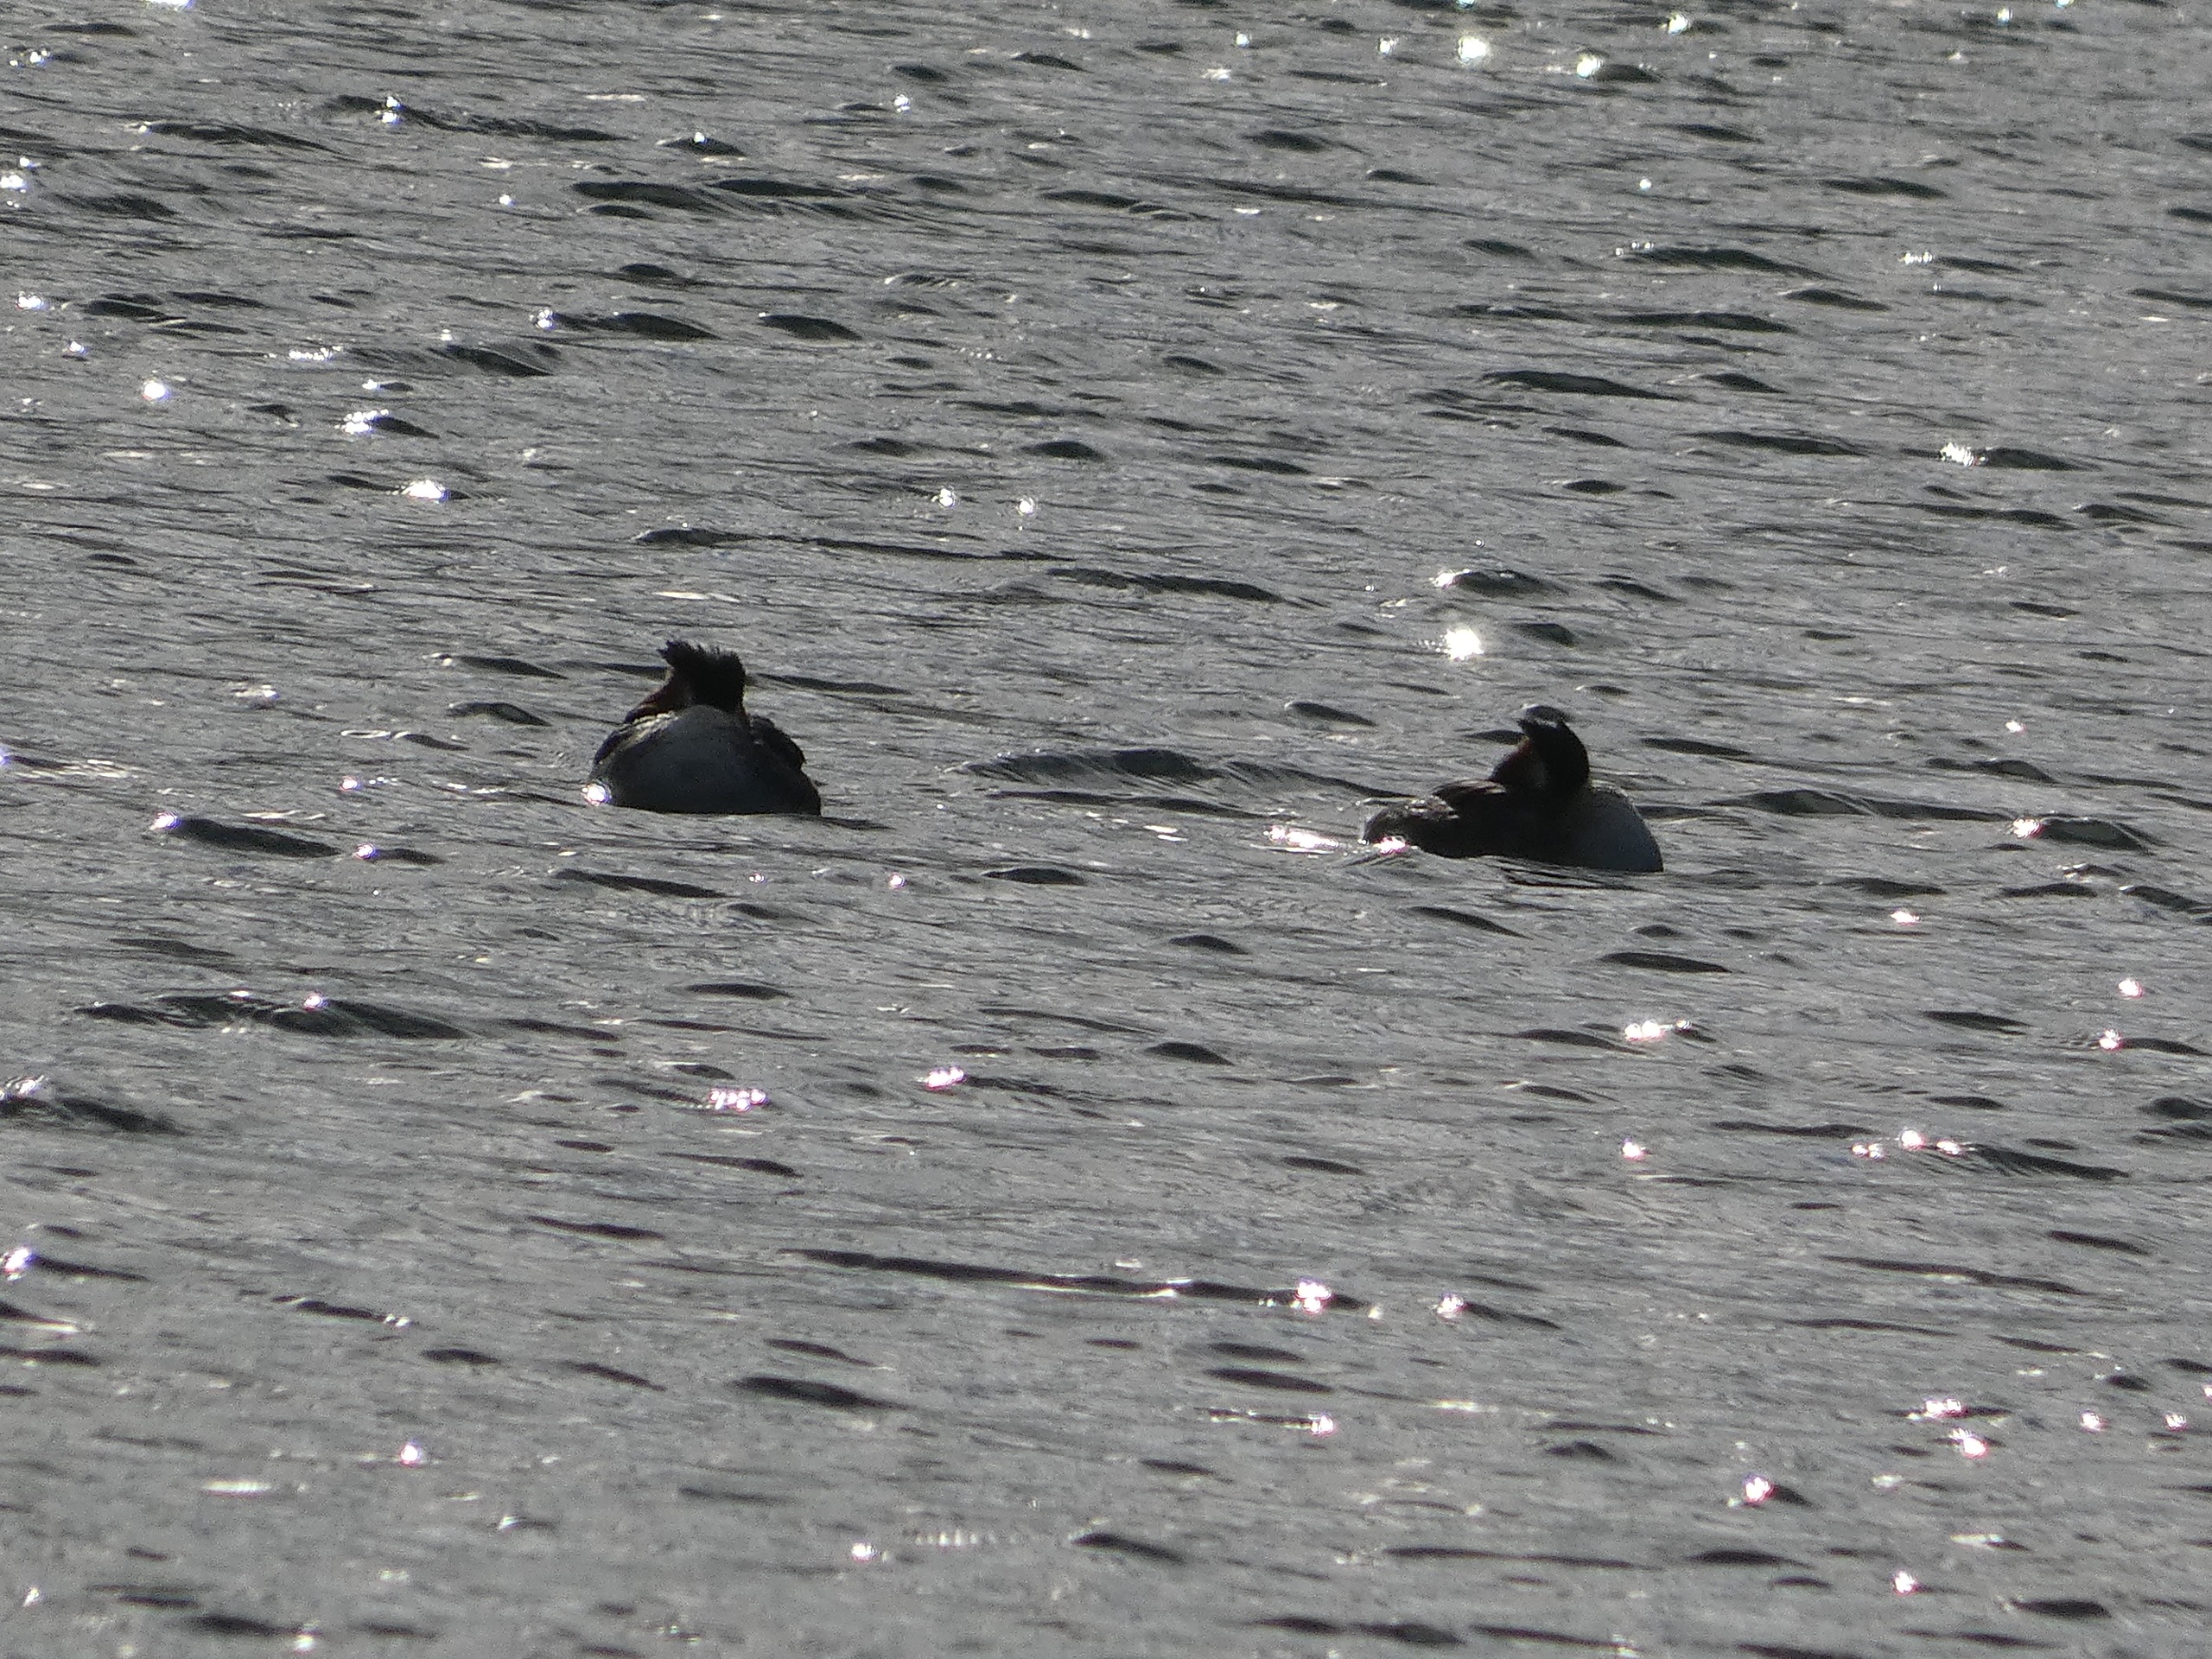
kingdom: Animalia
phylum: Chordata
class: Aves
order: Podicipediformes
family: Podicipedidae
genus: Podiceps
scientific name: Podiceps cristatus
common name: Toppet lappedykker
